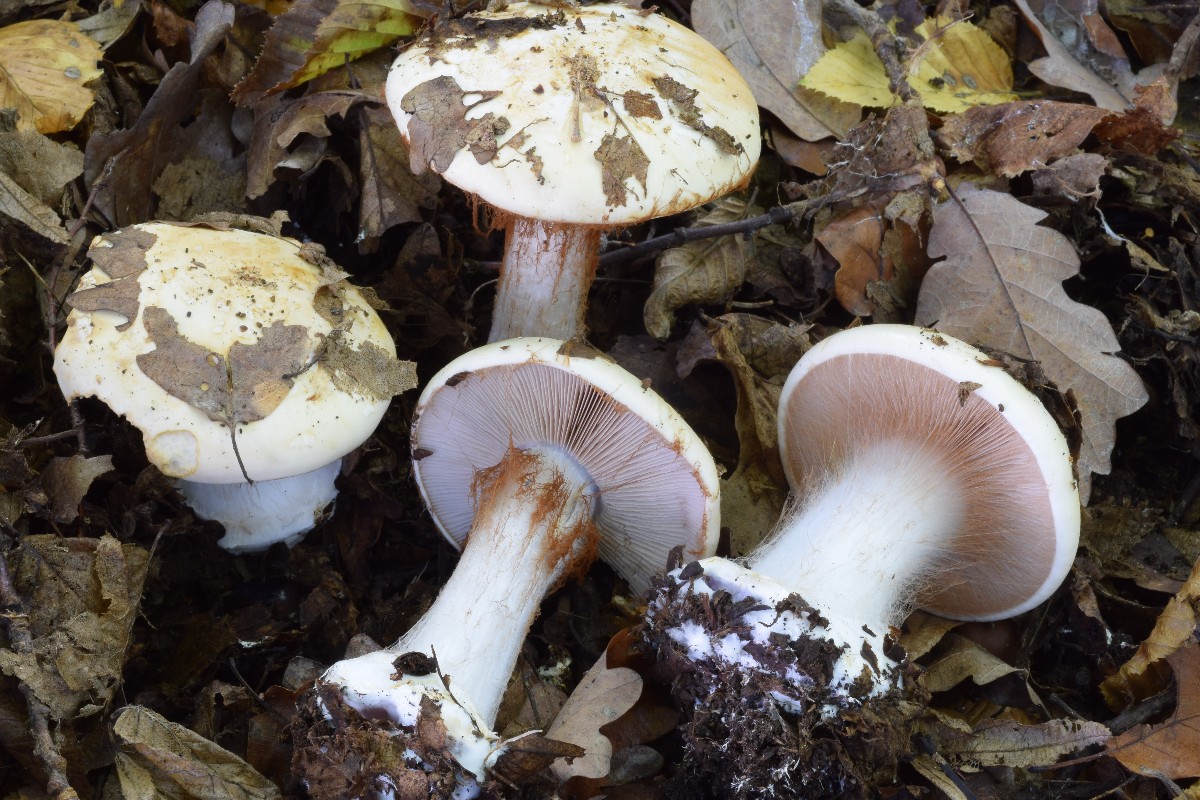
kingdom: Fungi
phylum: Basidiomycota
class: Agaricomycetes
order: Agaricales
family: Cortinariaceae
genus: Calonarius
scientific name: Calonarius rapaceoides
